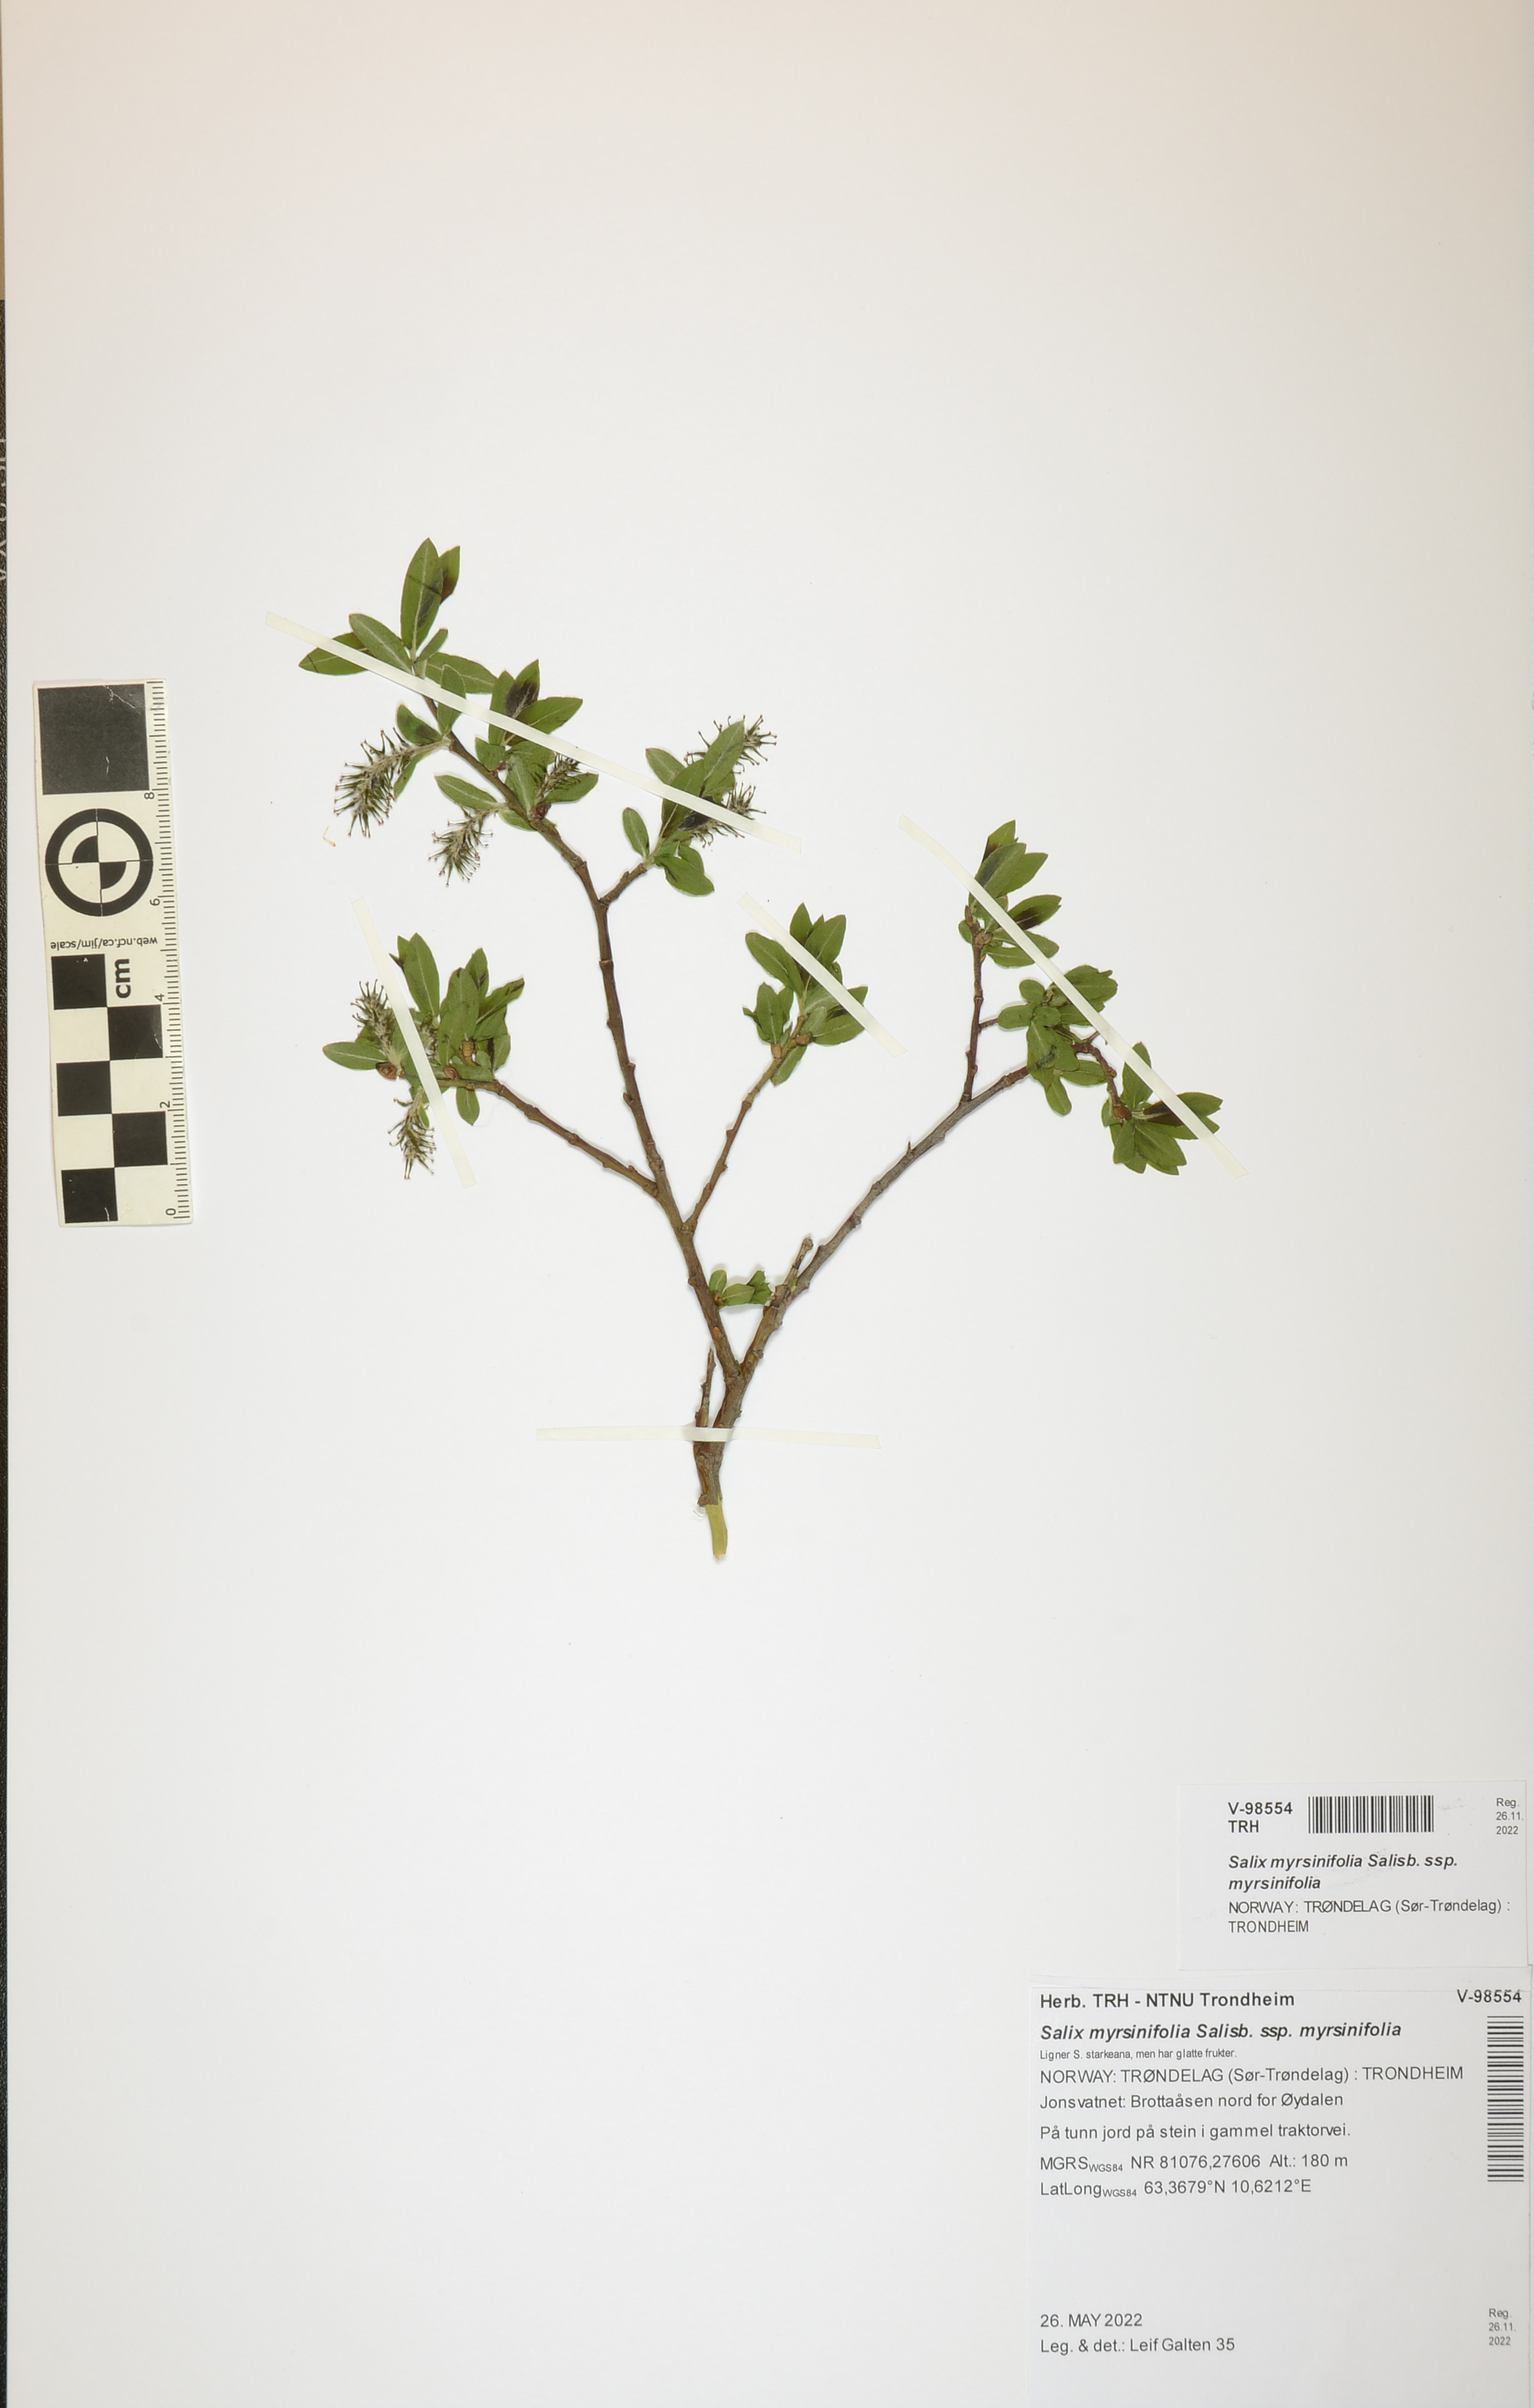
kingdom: Plantae
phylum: Tracheophyta
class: Magnoliopsida
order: Malpighiales
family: Salicaceae
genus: Salix
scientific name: Salix myrsinifolia
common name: Dark-leaved willow
